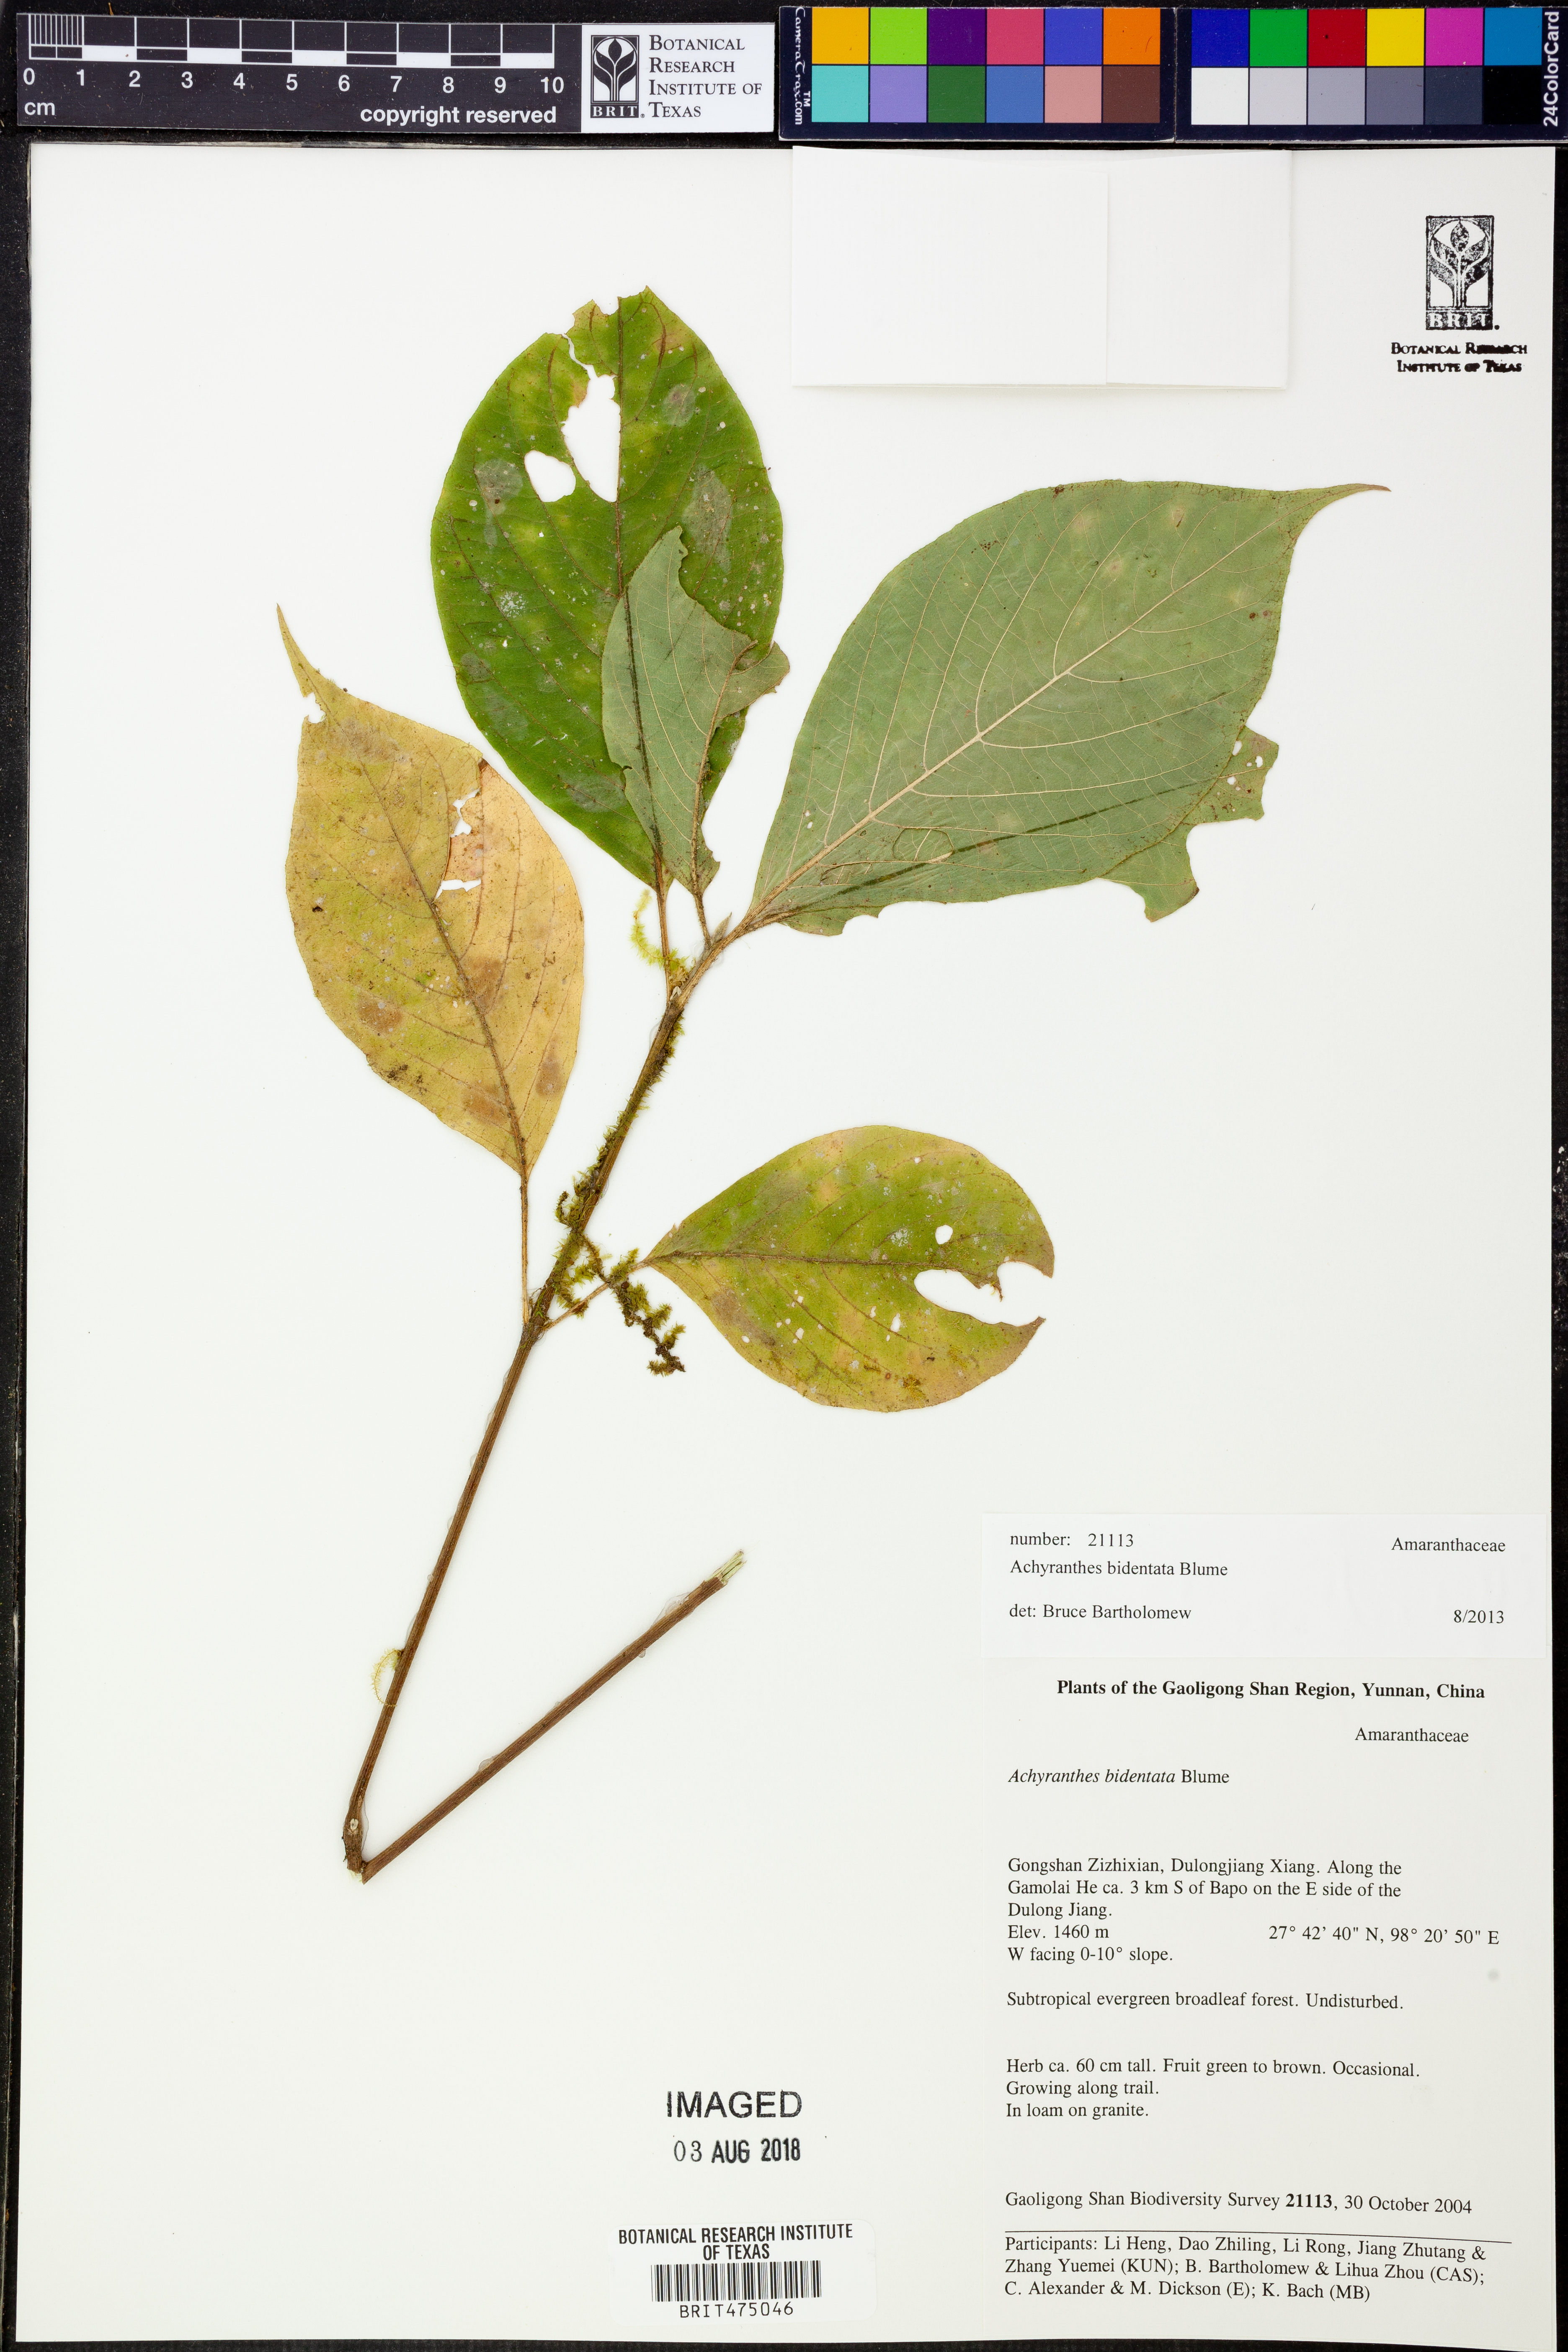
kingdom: Plantae
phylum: Tracheophyta
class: Magnoliopsida
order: Caryophyllales
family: Amaranthaceae
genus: Achyranthes
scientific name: Achyranthes bidentata
